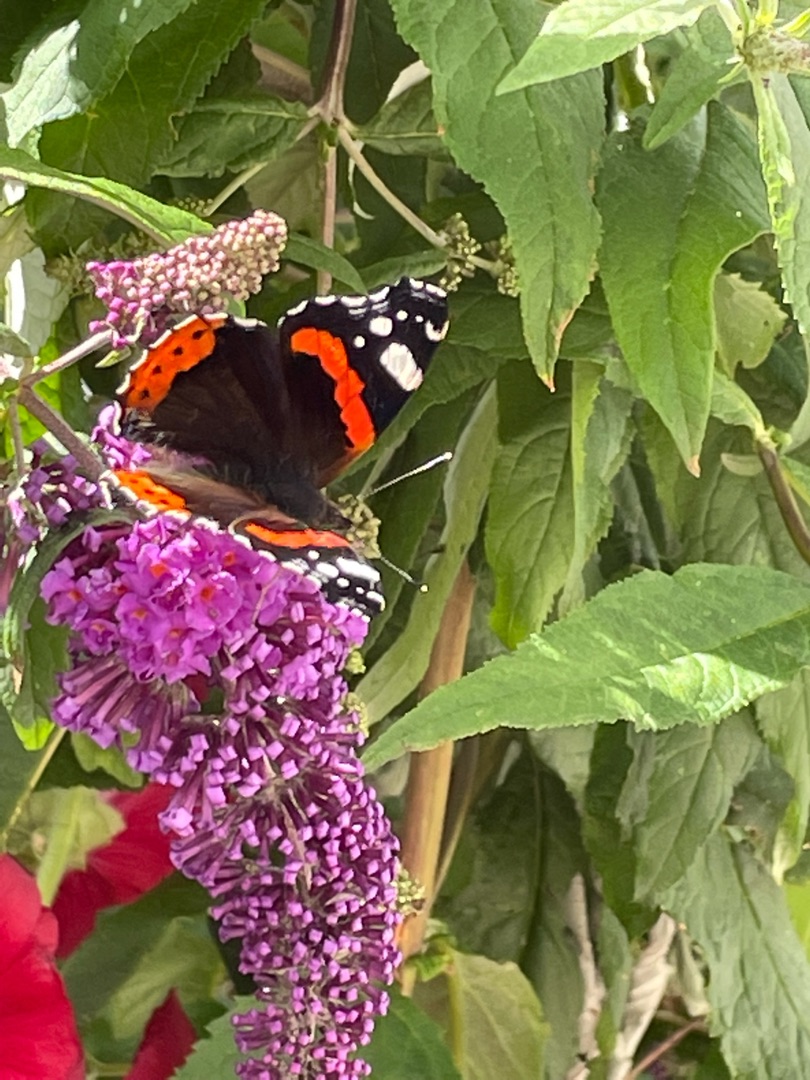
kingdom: Animalia
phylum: Arthropoda
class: Insecta
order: Lepidoptera
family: Nymphalidae
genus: Vanessa
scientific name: Vanessa atalanta
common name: Admiral
